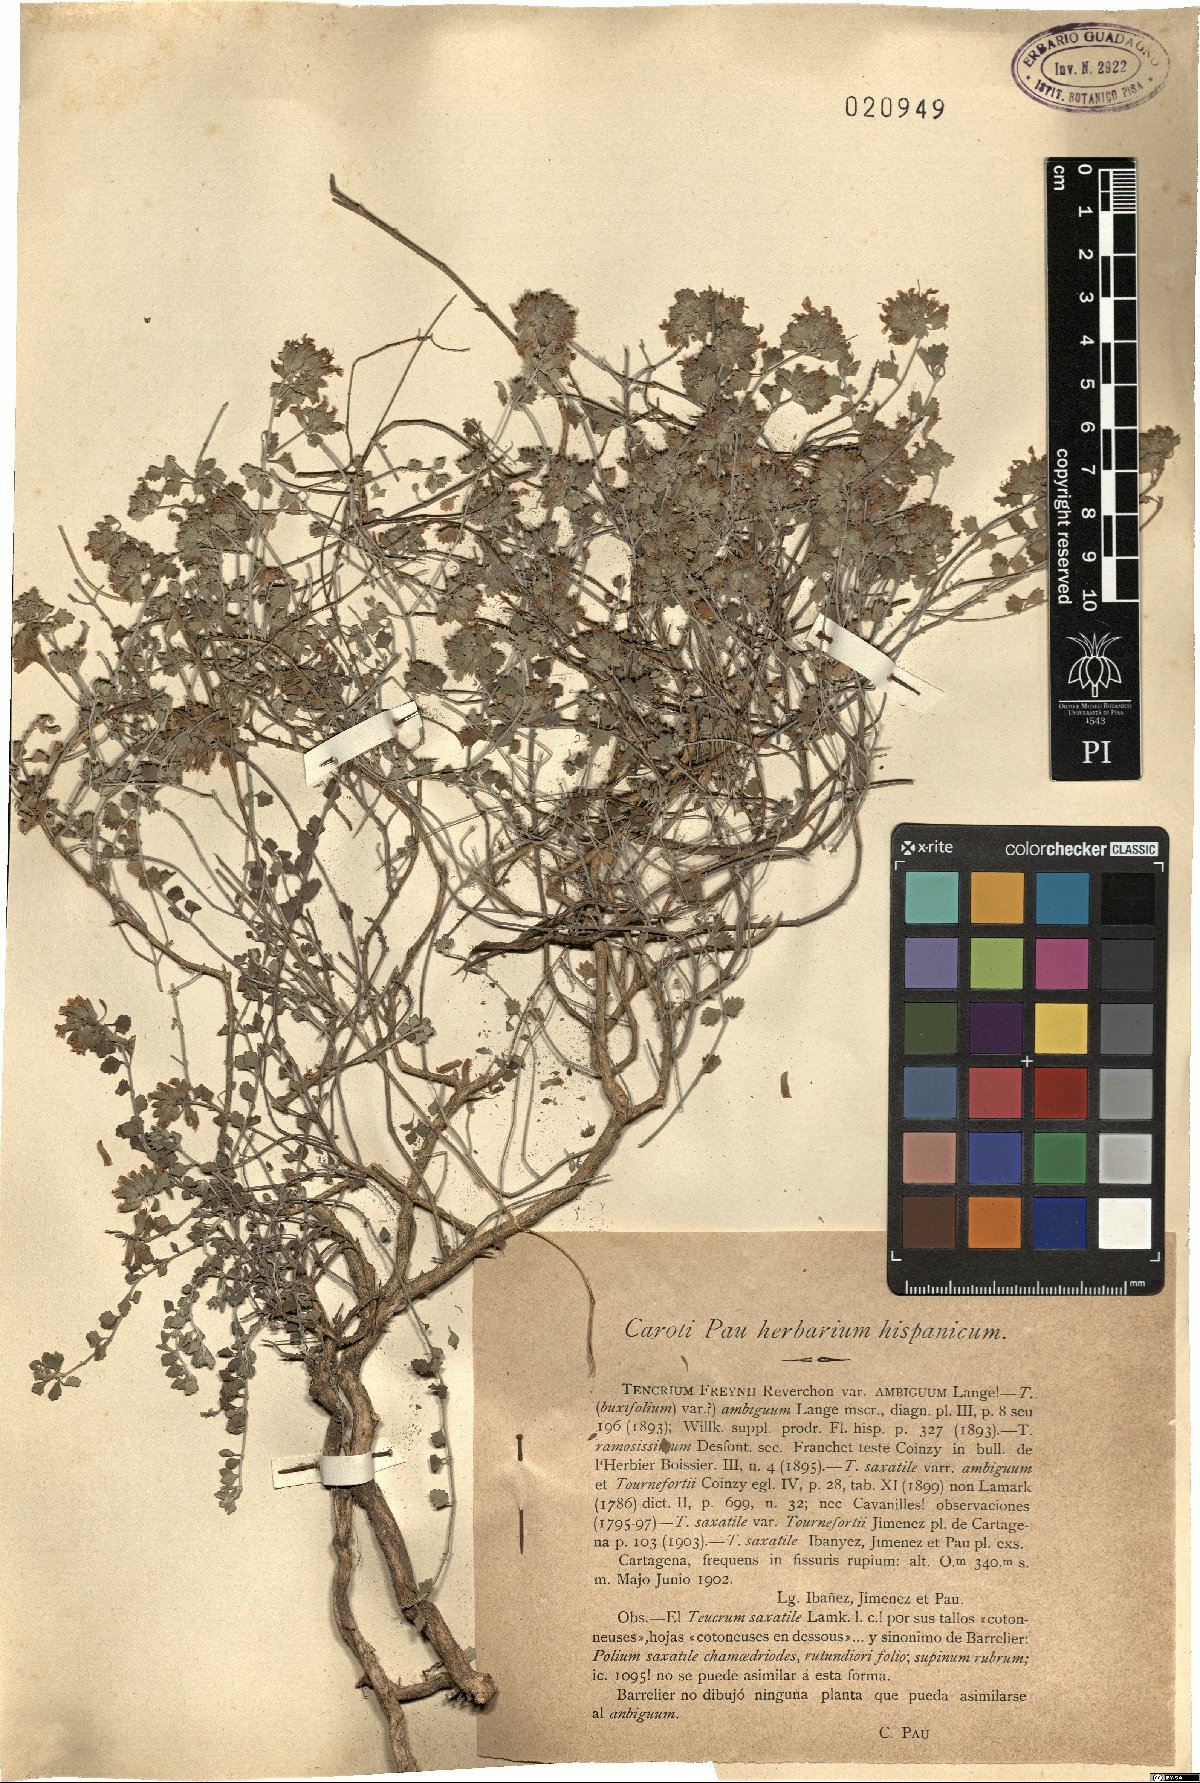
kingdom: Plantae
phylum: Tracheophyta
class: Magnoliopsida
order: Lamiales
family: Lamiaceae
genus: Teucrium
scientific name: Teucrium freynii
